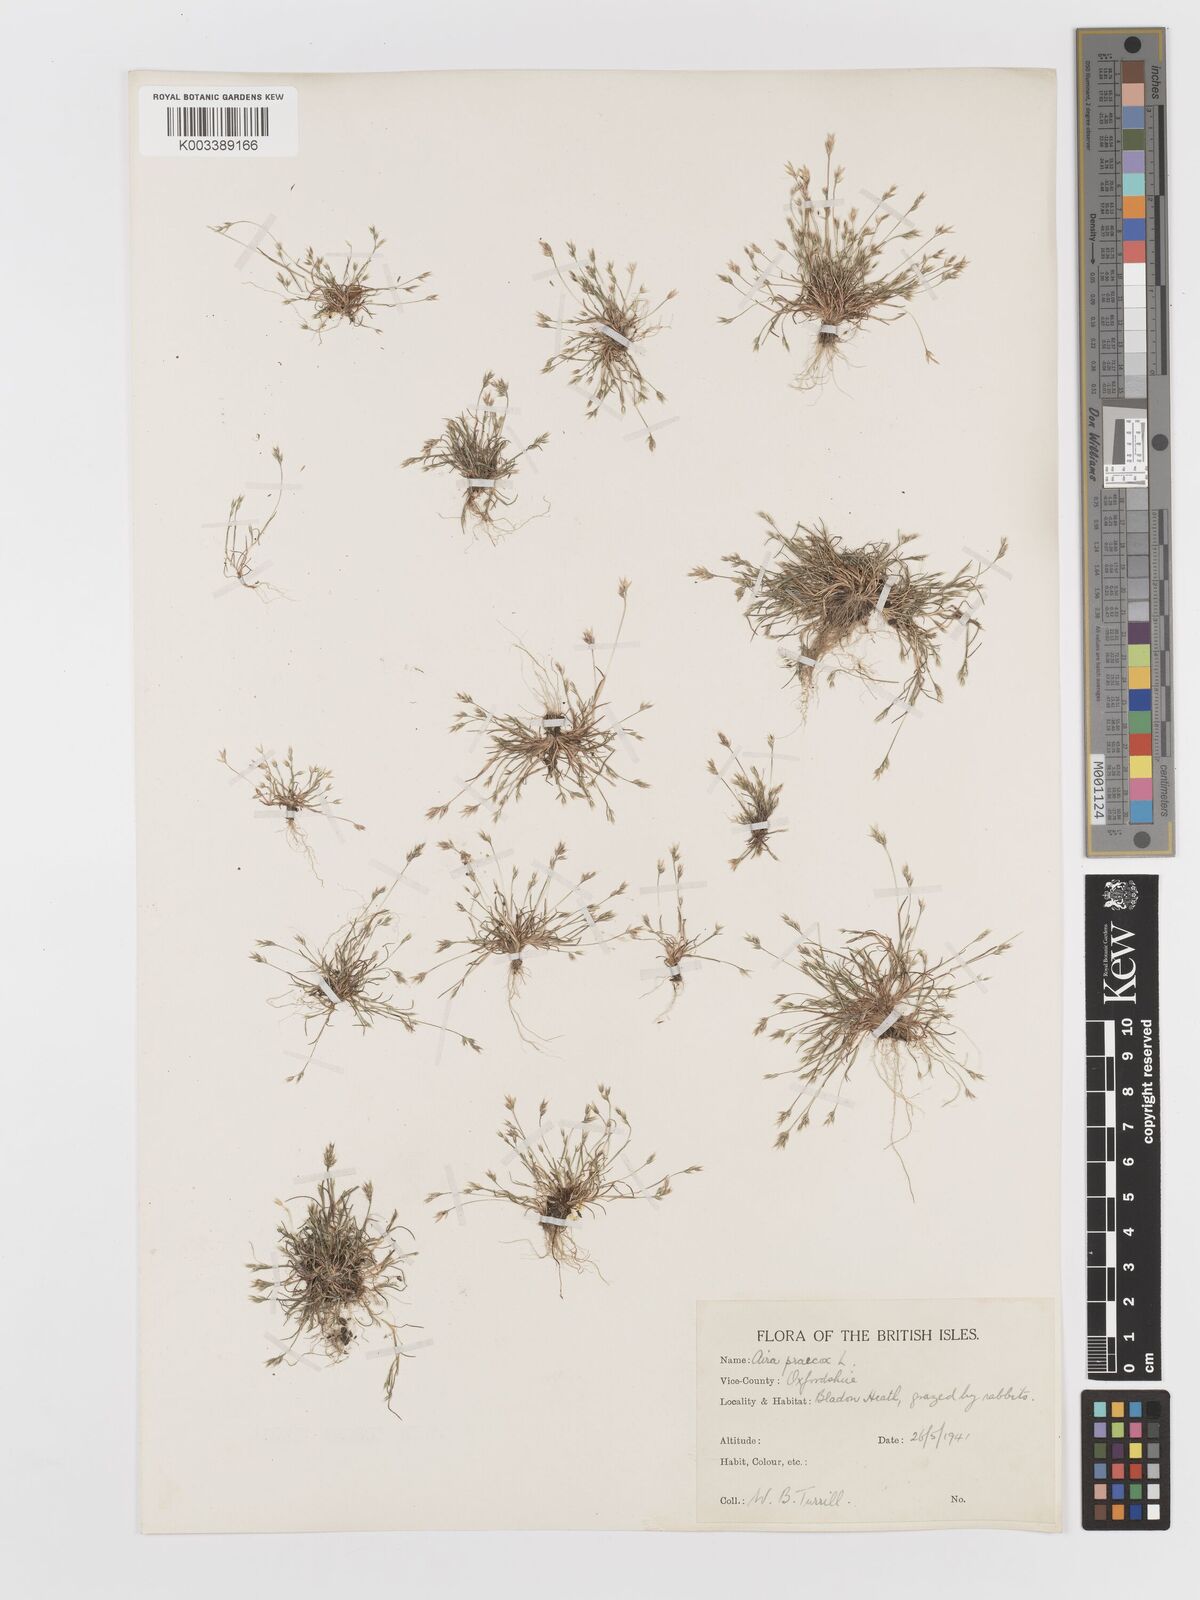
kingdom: Plantae
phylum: Tracheophyta
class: Liliopsida
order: Poales
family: Poaceae
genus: Aira
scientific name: Aira praecox
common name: Early hair-grass
